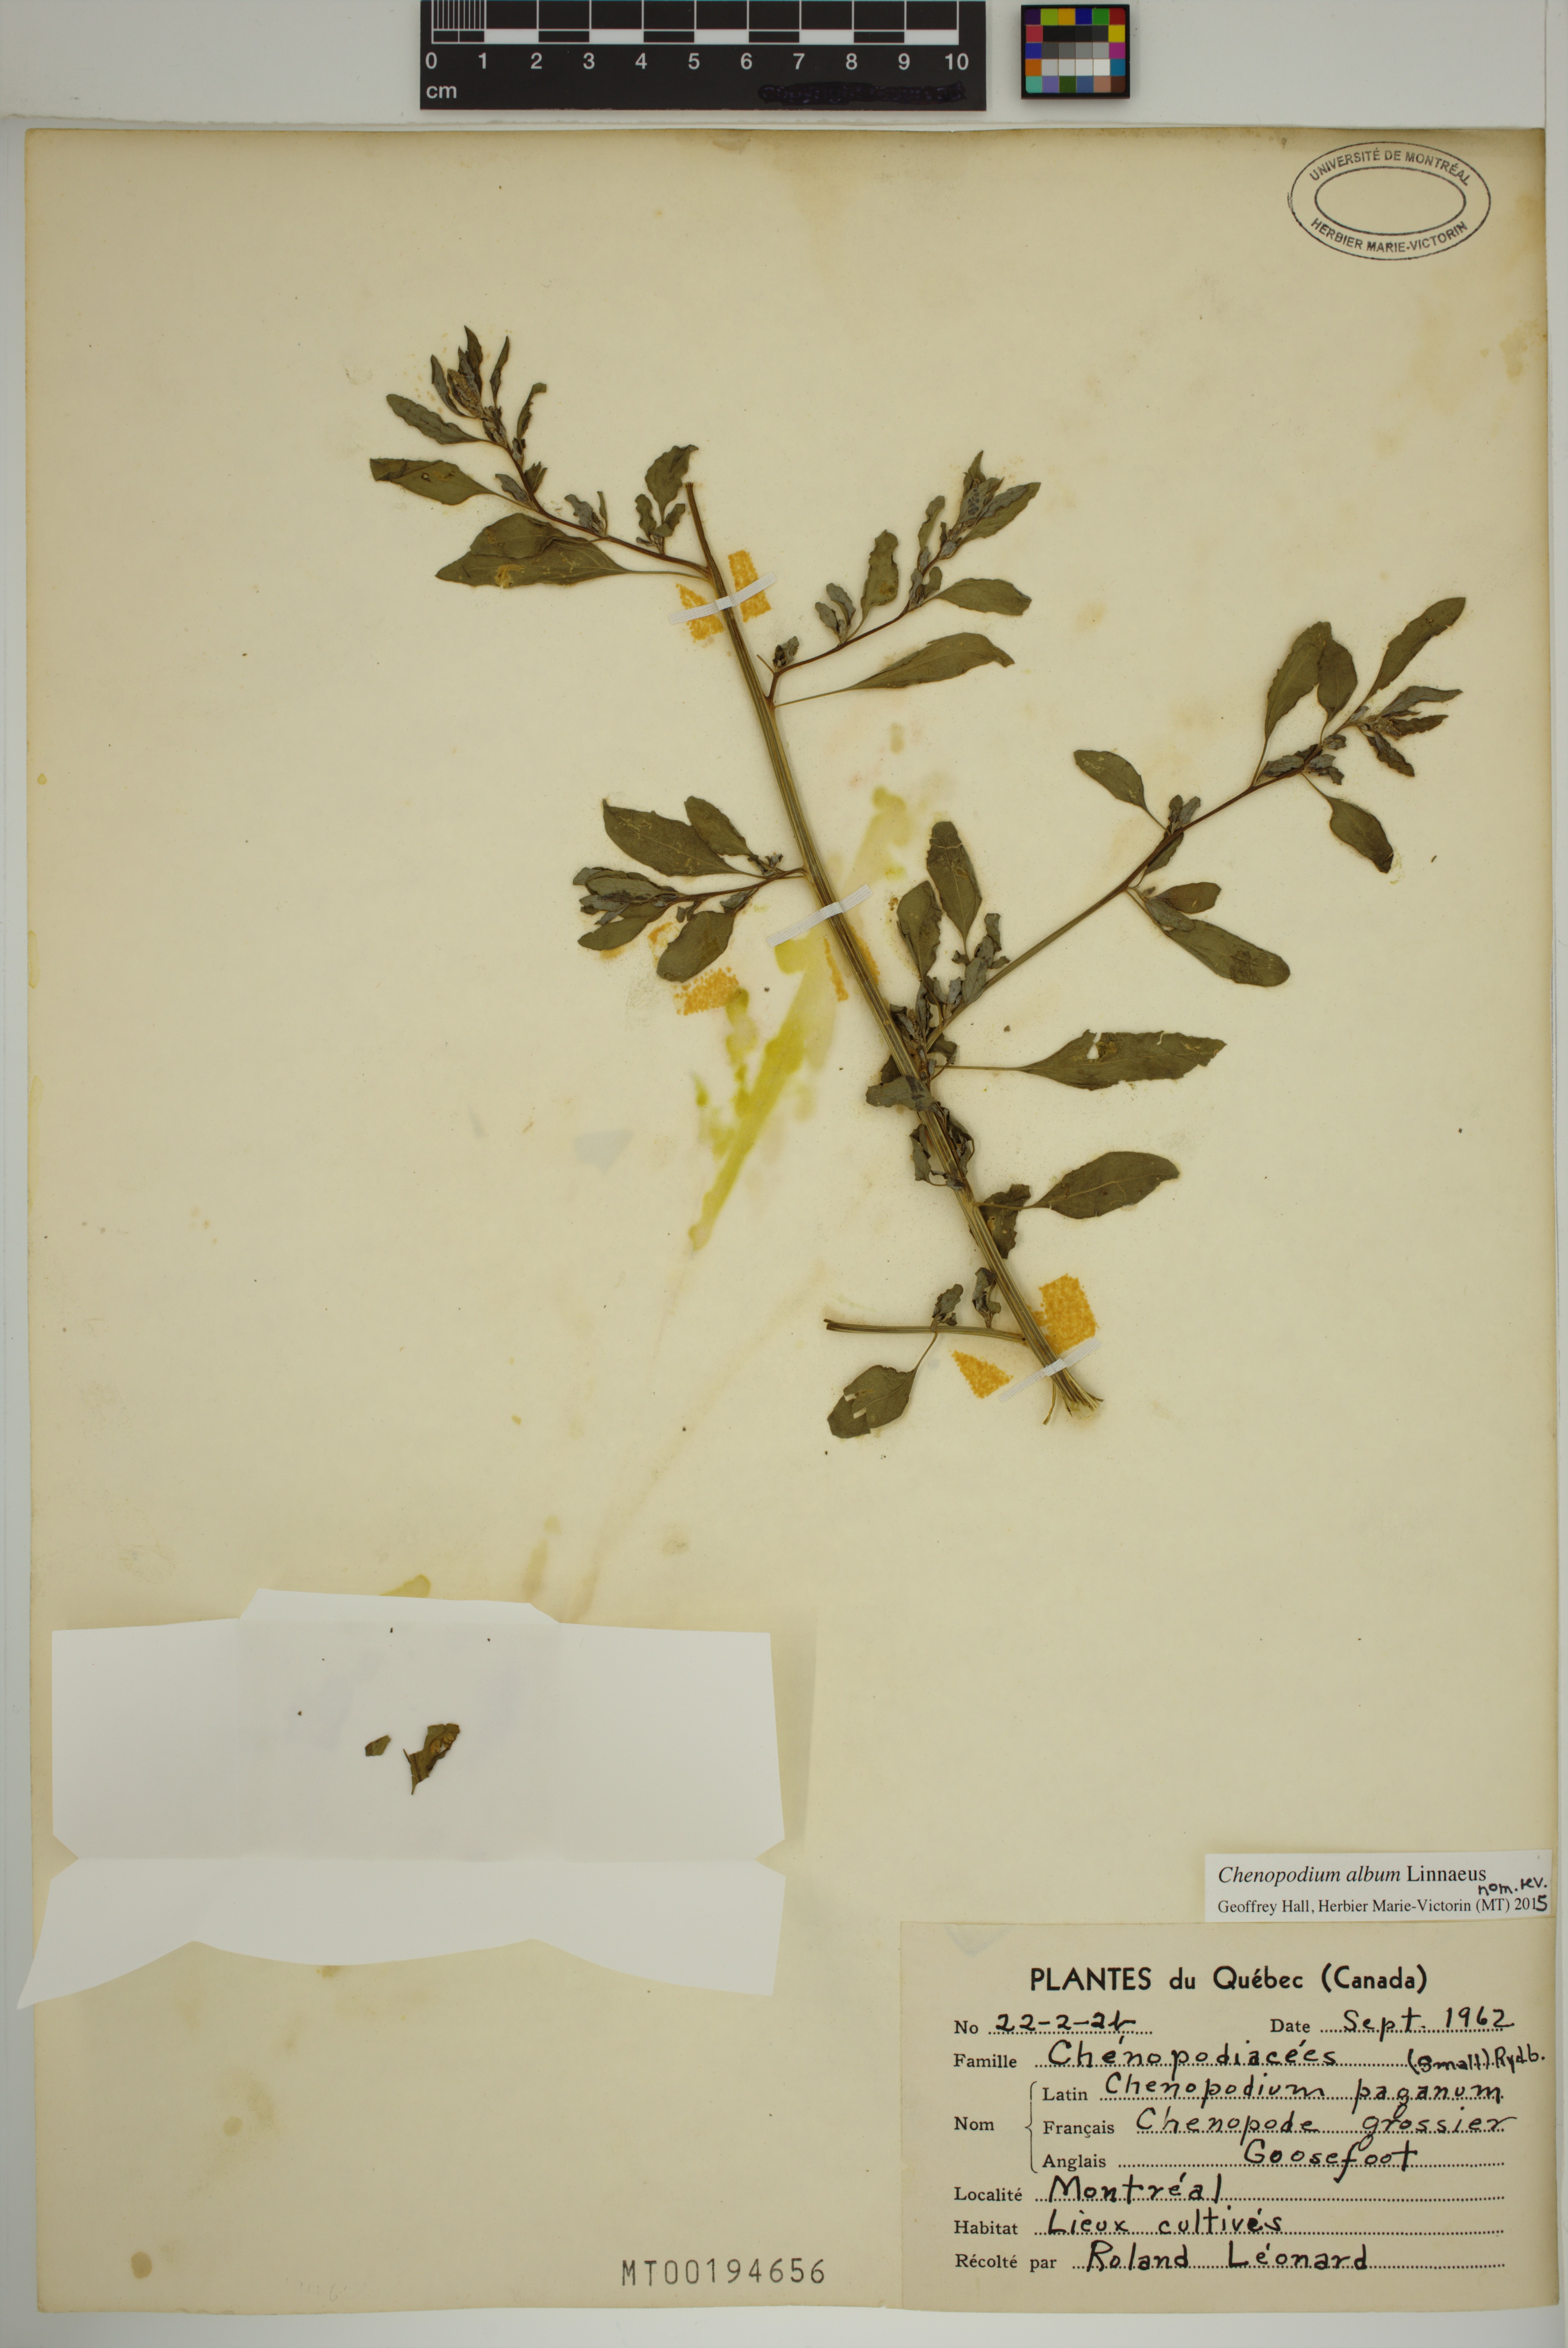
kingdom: Plantae
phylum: Tracheophyta
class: Magnoliopsida
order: Caryophyllales
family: Amaranthaceae
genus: Chenopodium
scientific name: Chenopodium album
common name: Fat-hen
